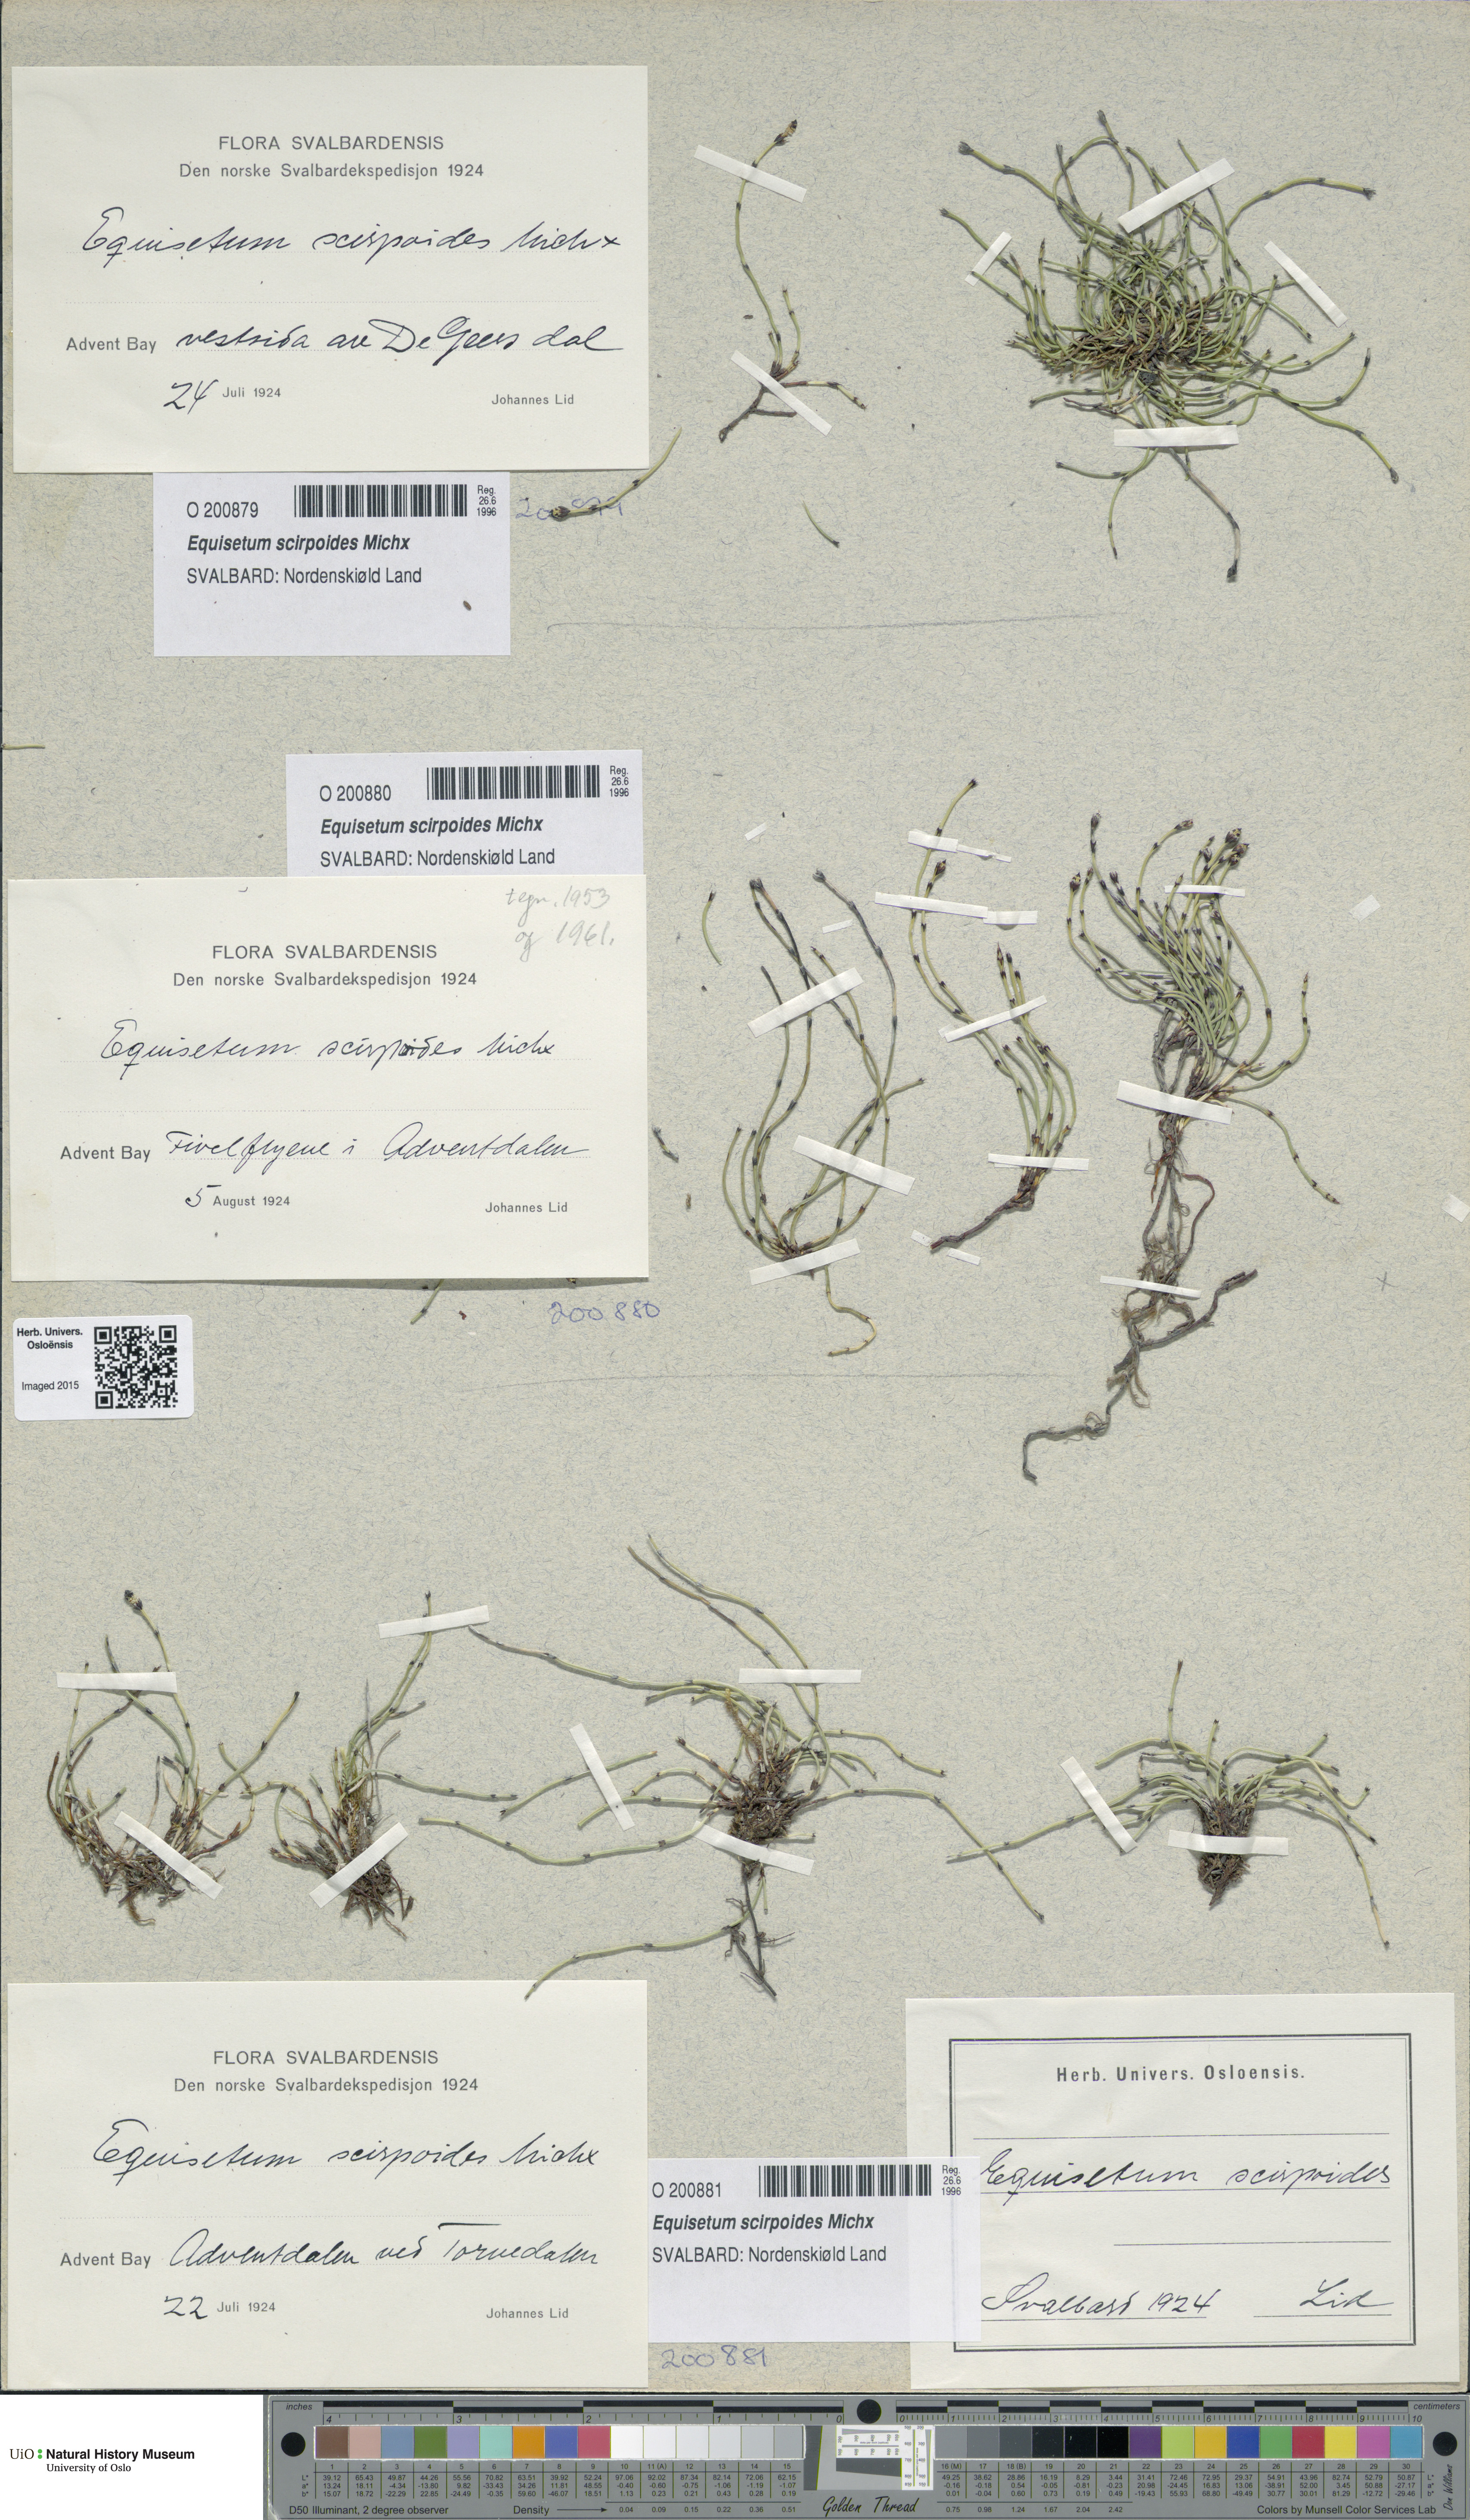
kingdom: Plantae
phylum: Tracheophyta
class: Polypodiopsida
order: Equisetales
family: Equisetaceae
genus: Equisetum
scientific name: Equisetum scirpoides
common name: Delicate horsetail
